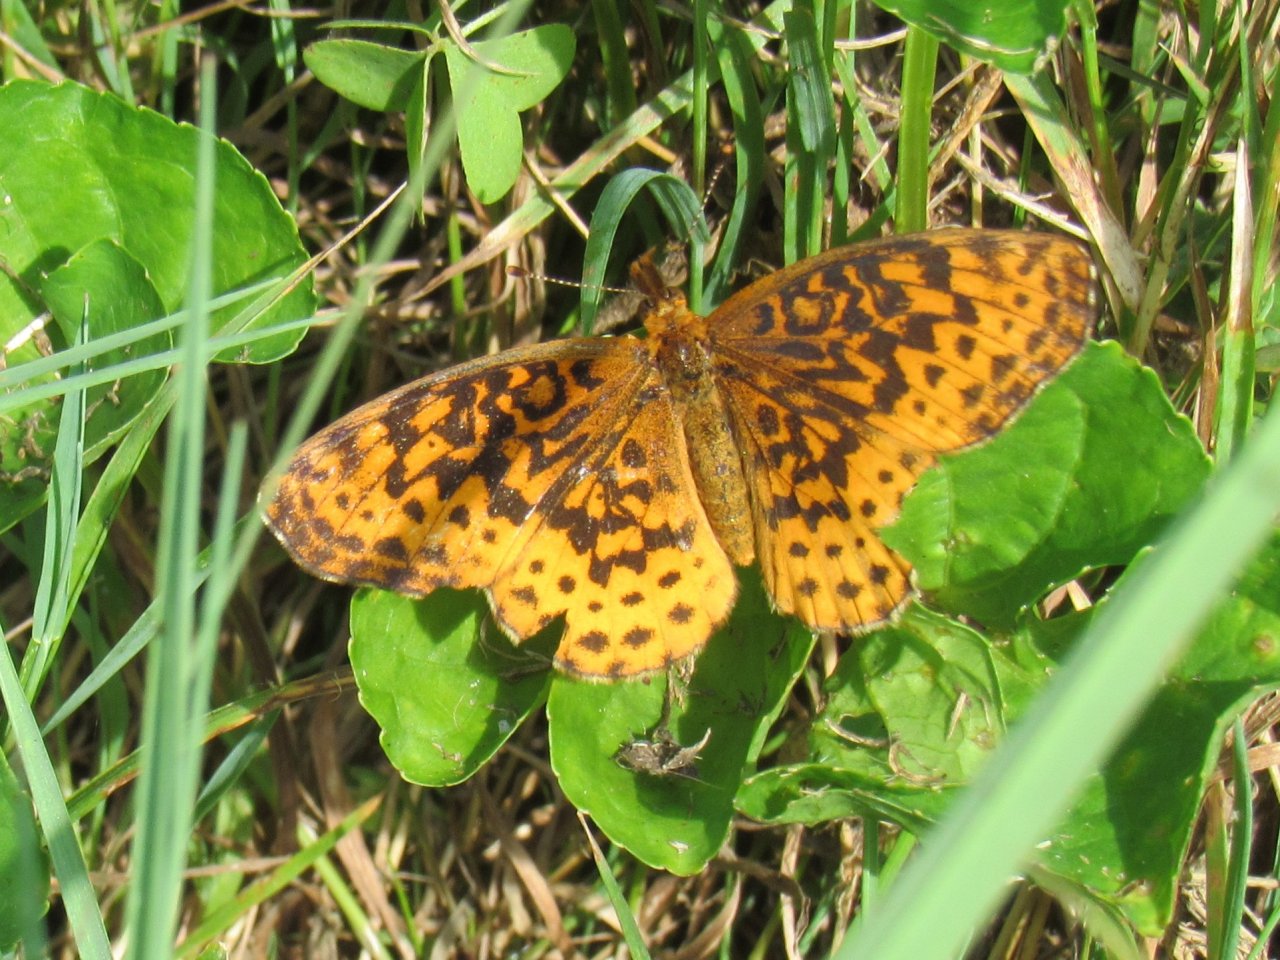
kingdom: Animalia
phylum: Arthropoda
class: Insecta
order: Lepidoptera
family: Nymphalidae
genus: Clossiana
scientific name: Clossiana toddi
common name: Meadow Fritillary
